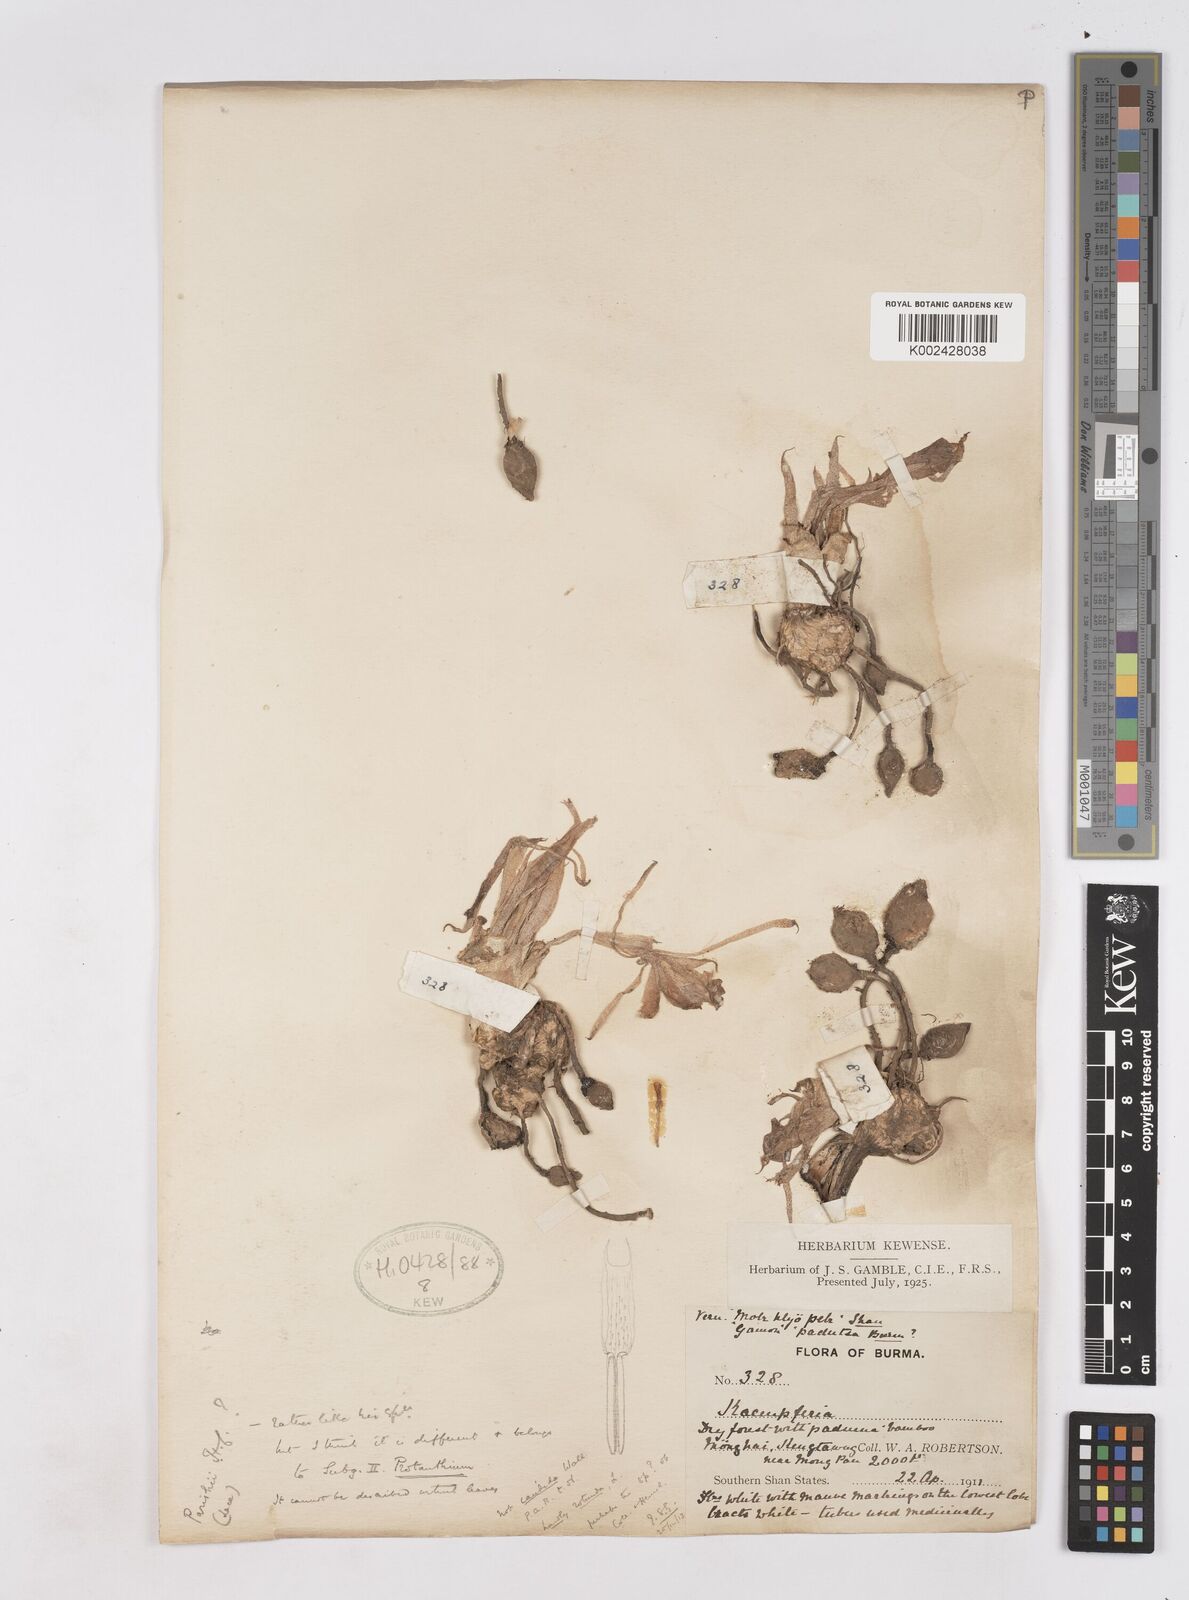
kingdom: Plantae
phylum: Tracheophyta
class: Liliopsida
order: Zingiberales
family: Zingiberaceae
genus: Kaempferia
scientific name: Kaempferia rotunda
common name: Tropical-crocus
